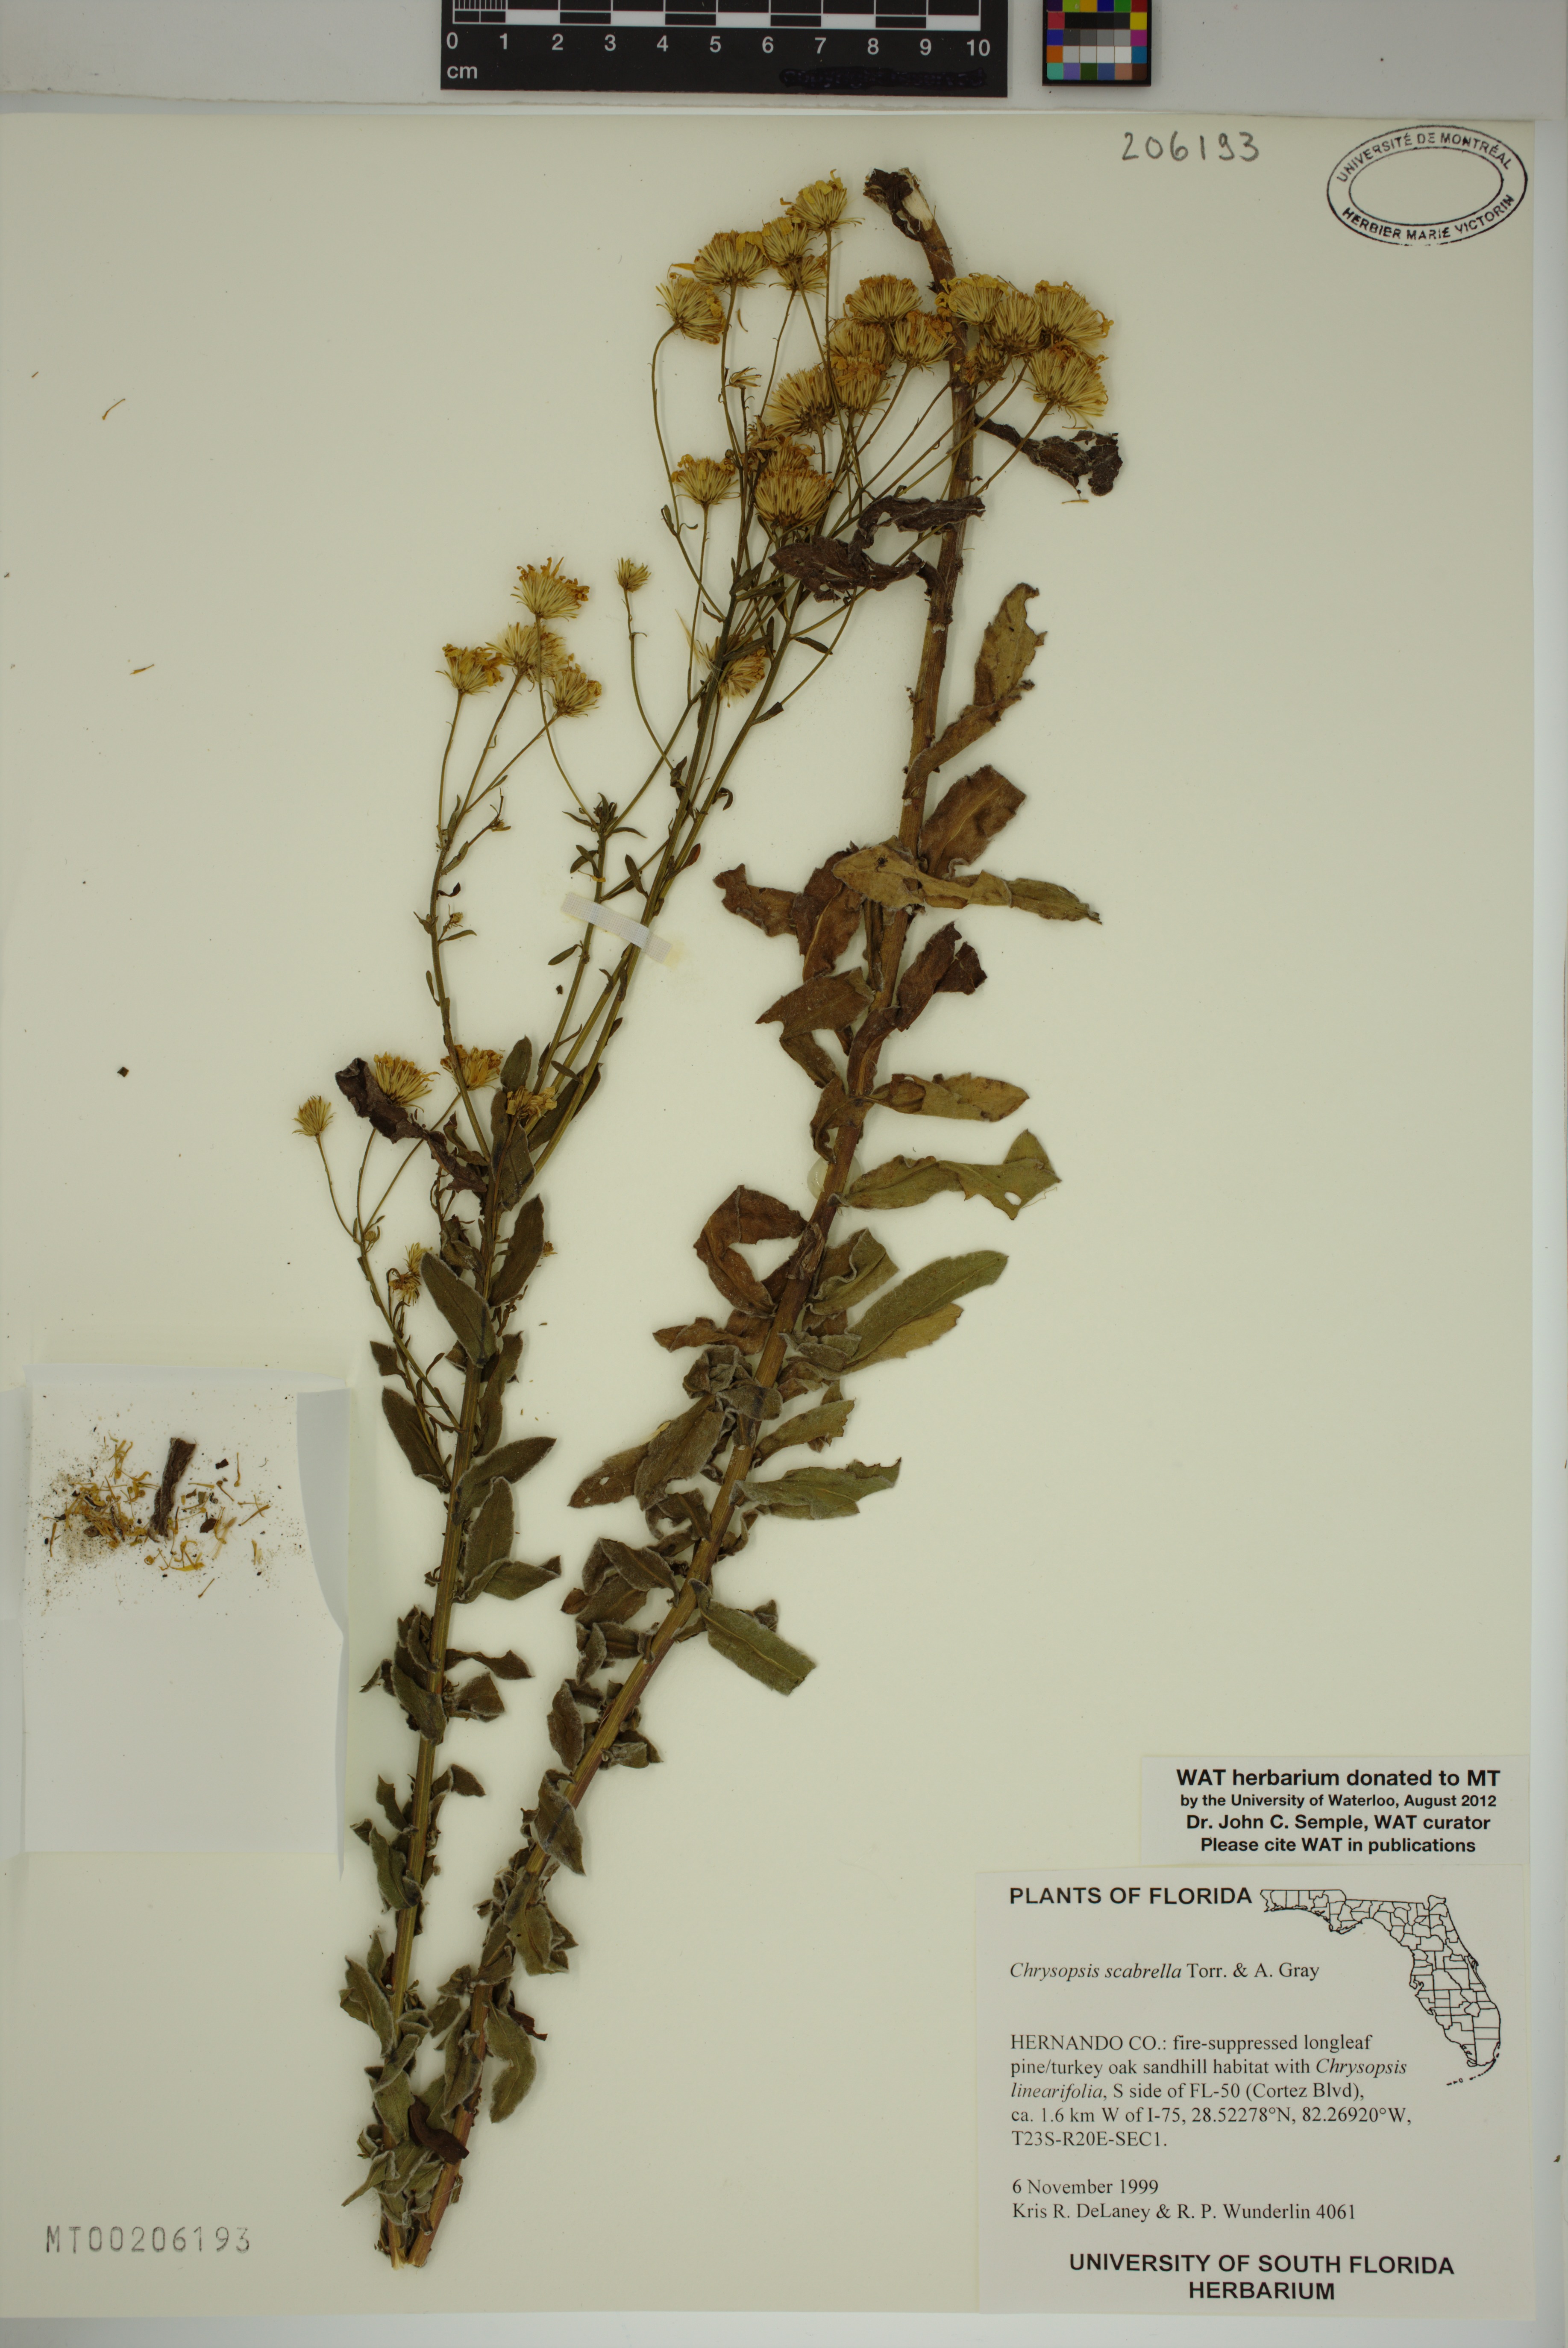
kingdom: Plantae
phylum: Tracheophyta
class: Magnoliopsida
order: Asterales
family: Asteraceae
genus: Chrysopsis
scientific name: Chrysopsis scabrella
